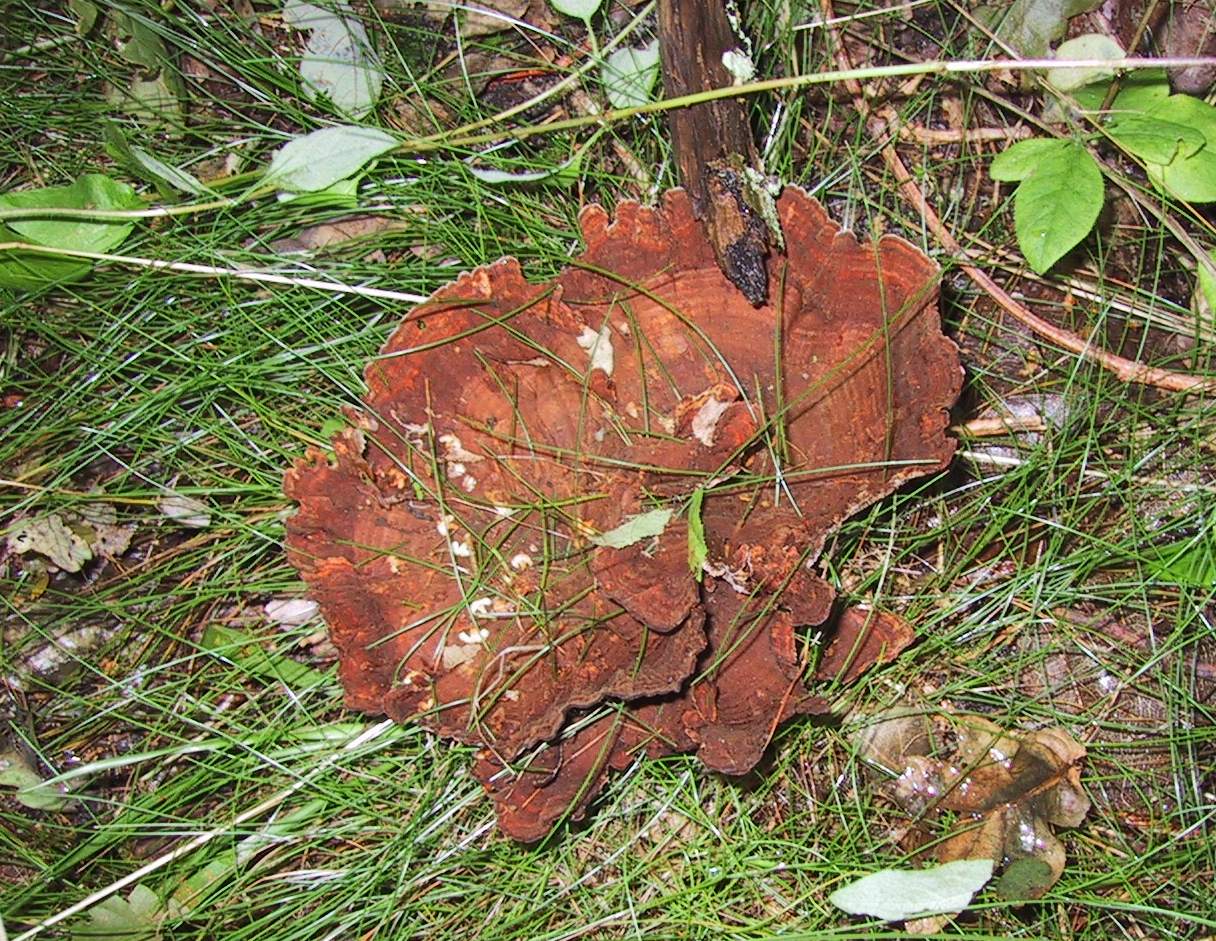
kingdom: Fungi
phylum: Basidiomycota
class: Agaricomycetes
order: Hymenochaetales
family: Hymenochaetaceae
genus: Coltricia
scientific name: Coltricia perennis
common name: almindelig sandporesvamp
